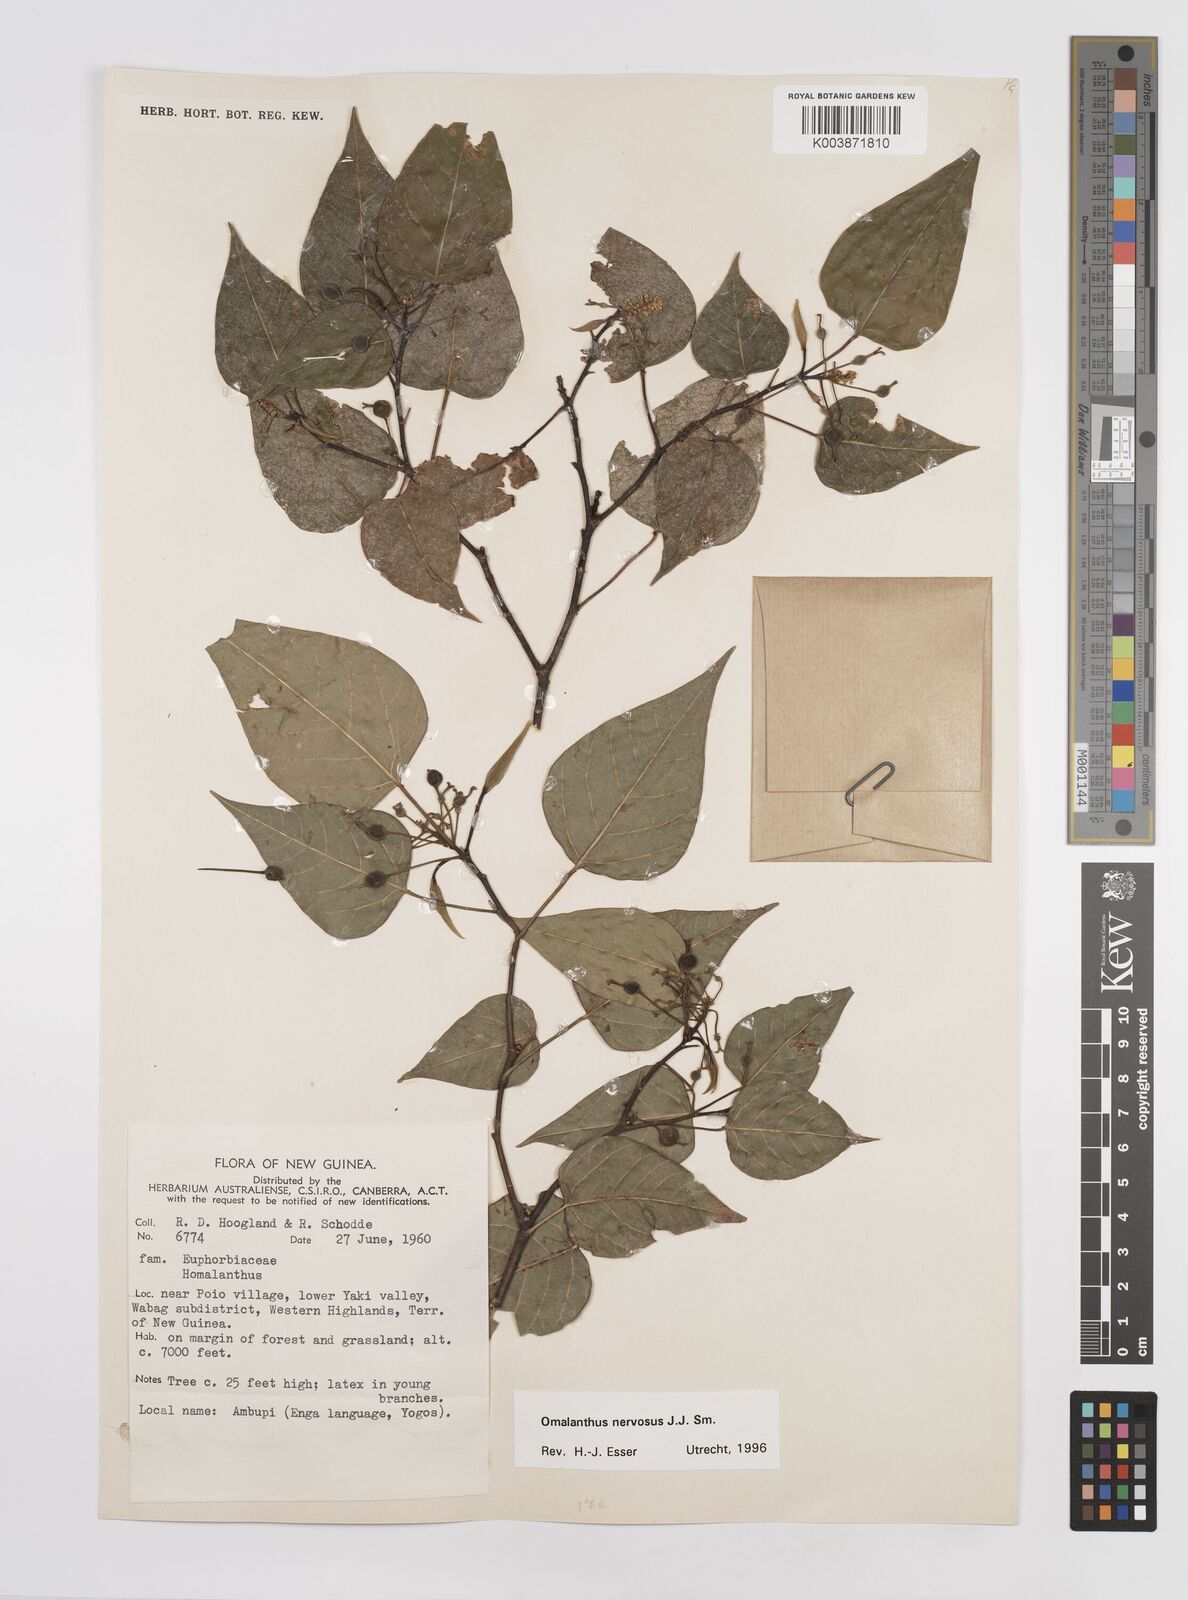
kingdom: Plantae
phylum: Tracheophyta
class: Magnoliopsida
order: Malpighiales
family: Euphorbiaceae
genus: Homalanthus
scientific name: Homalanthus nervosus
